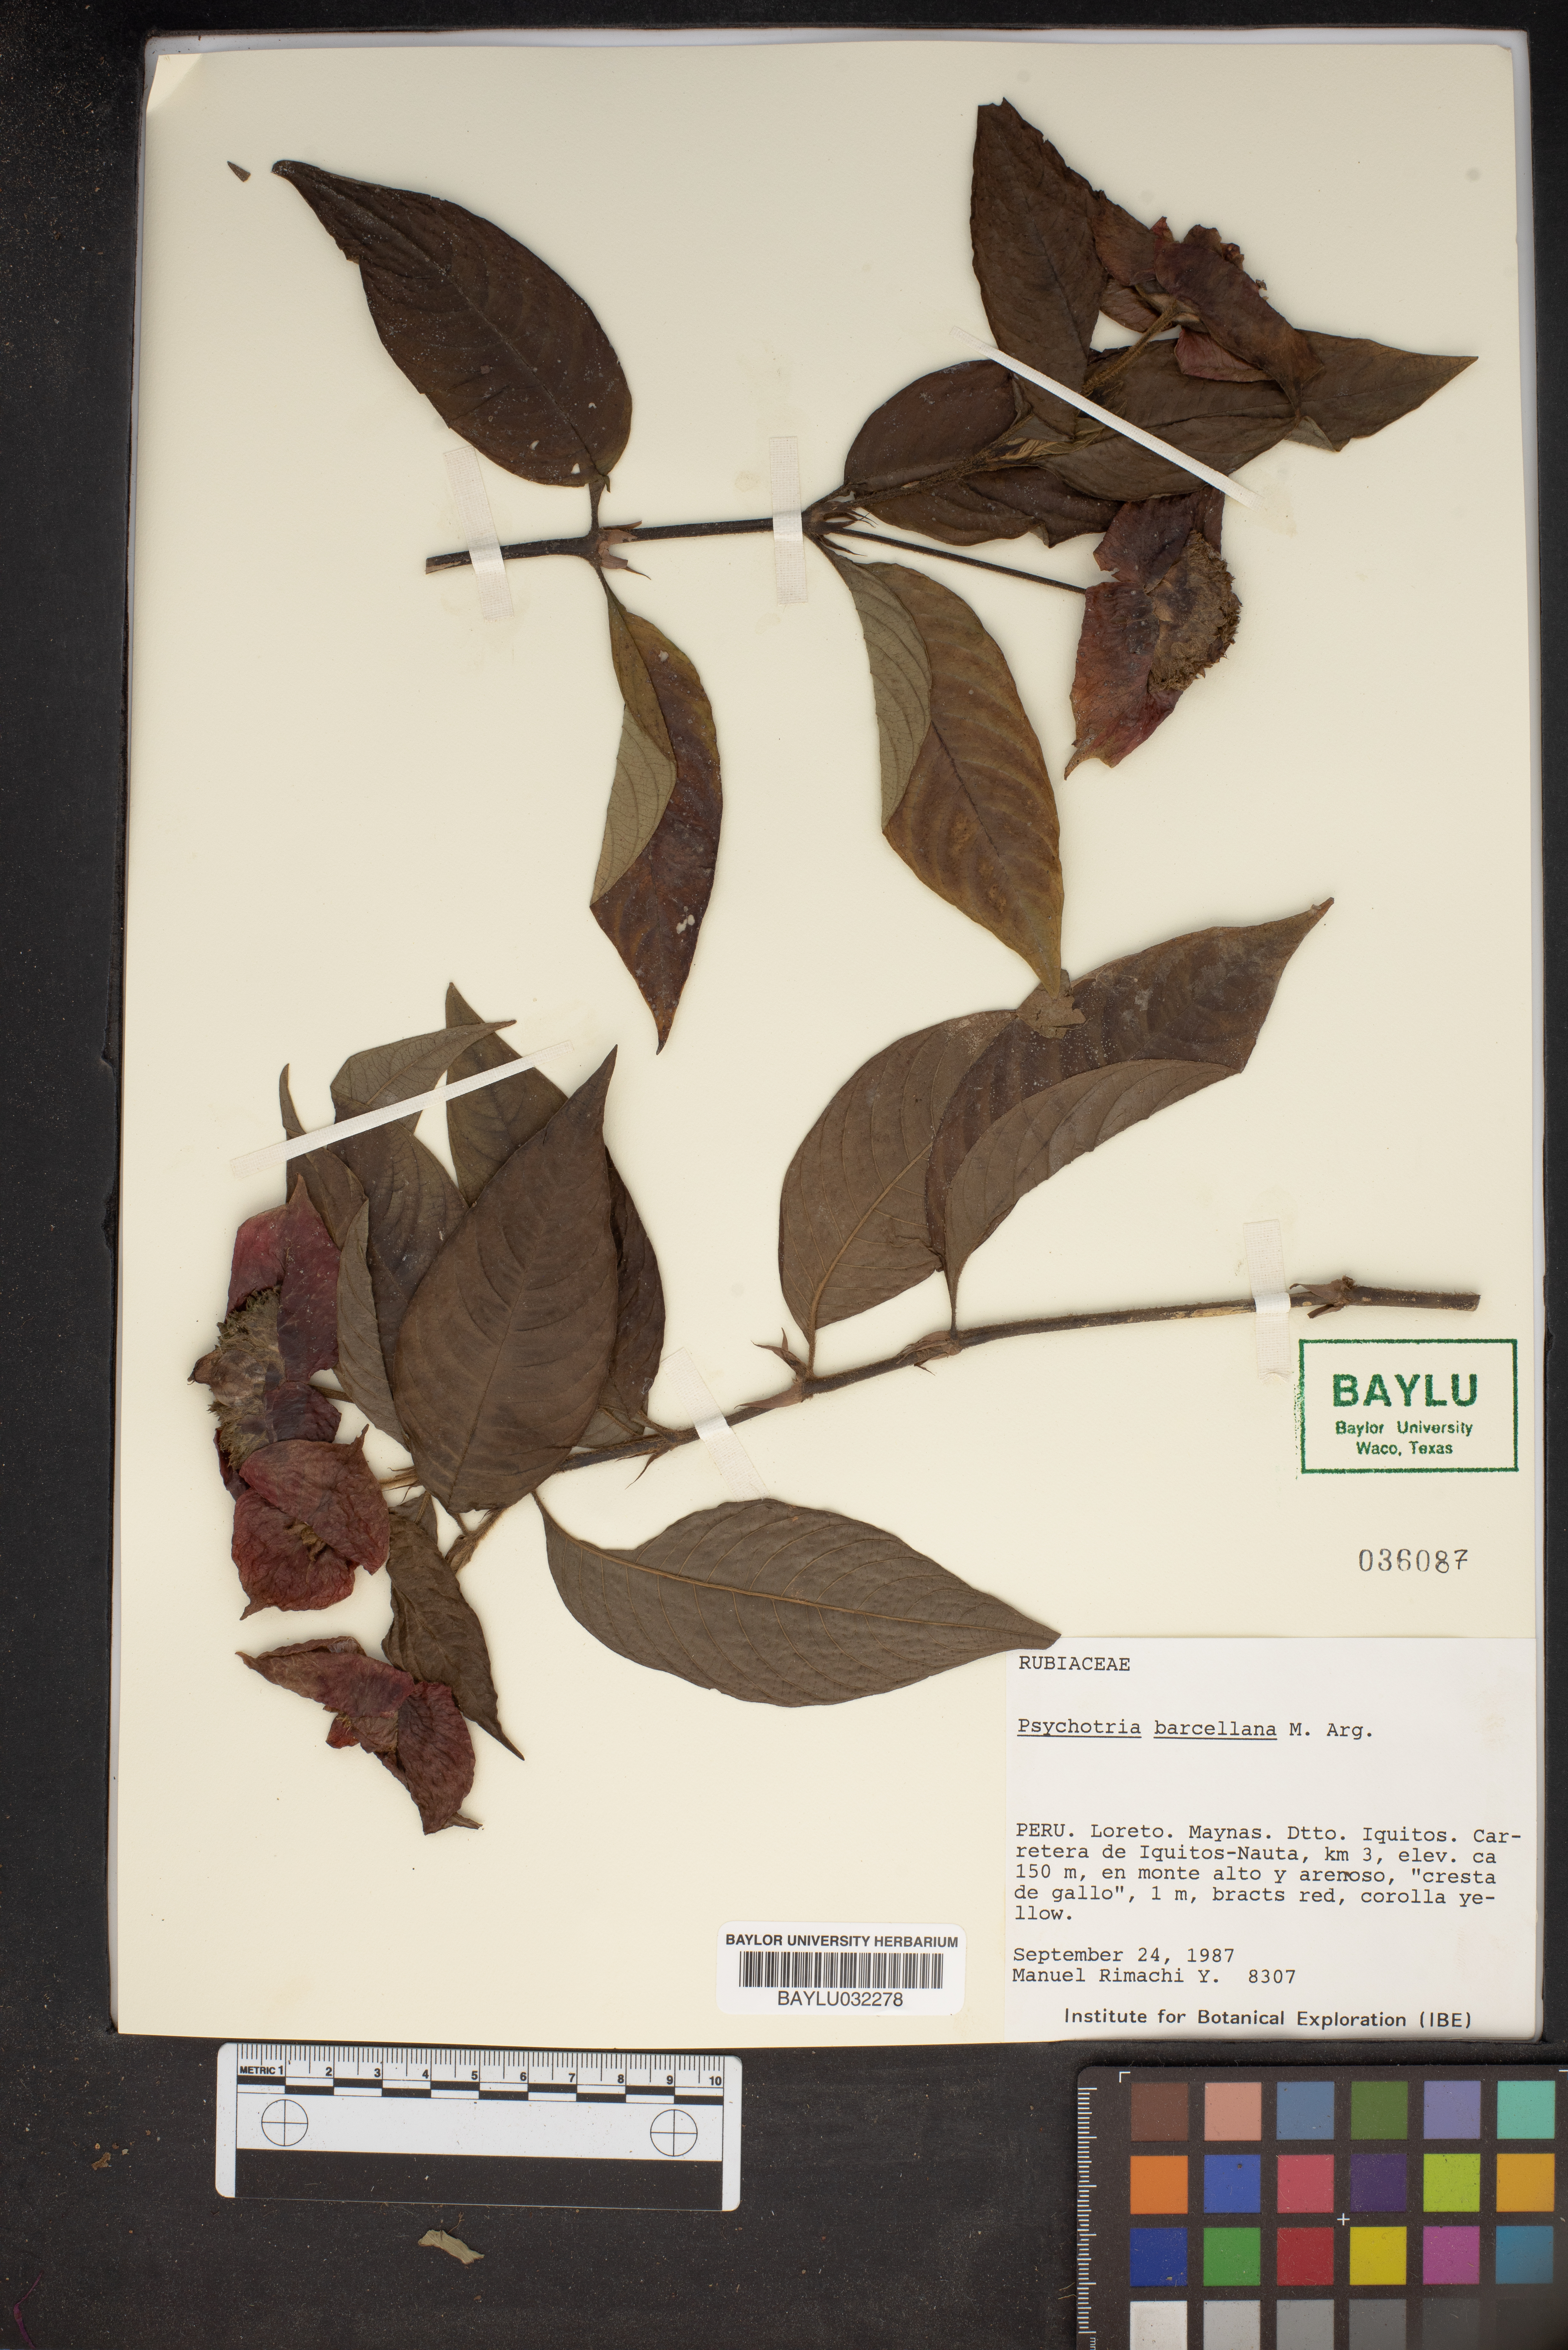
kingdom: Plantae
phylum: Tracheophyta
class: Magnoliopsida
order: Gentianales
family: Rubiaceae
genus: Palicourea
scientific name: Palicourea tomentosa
